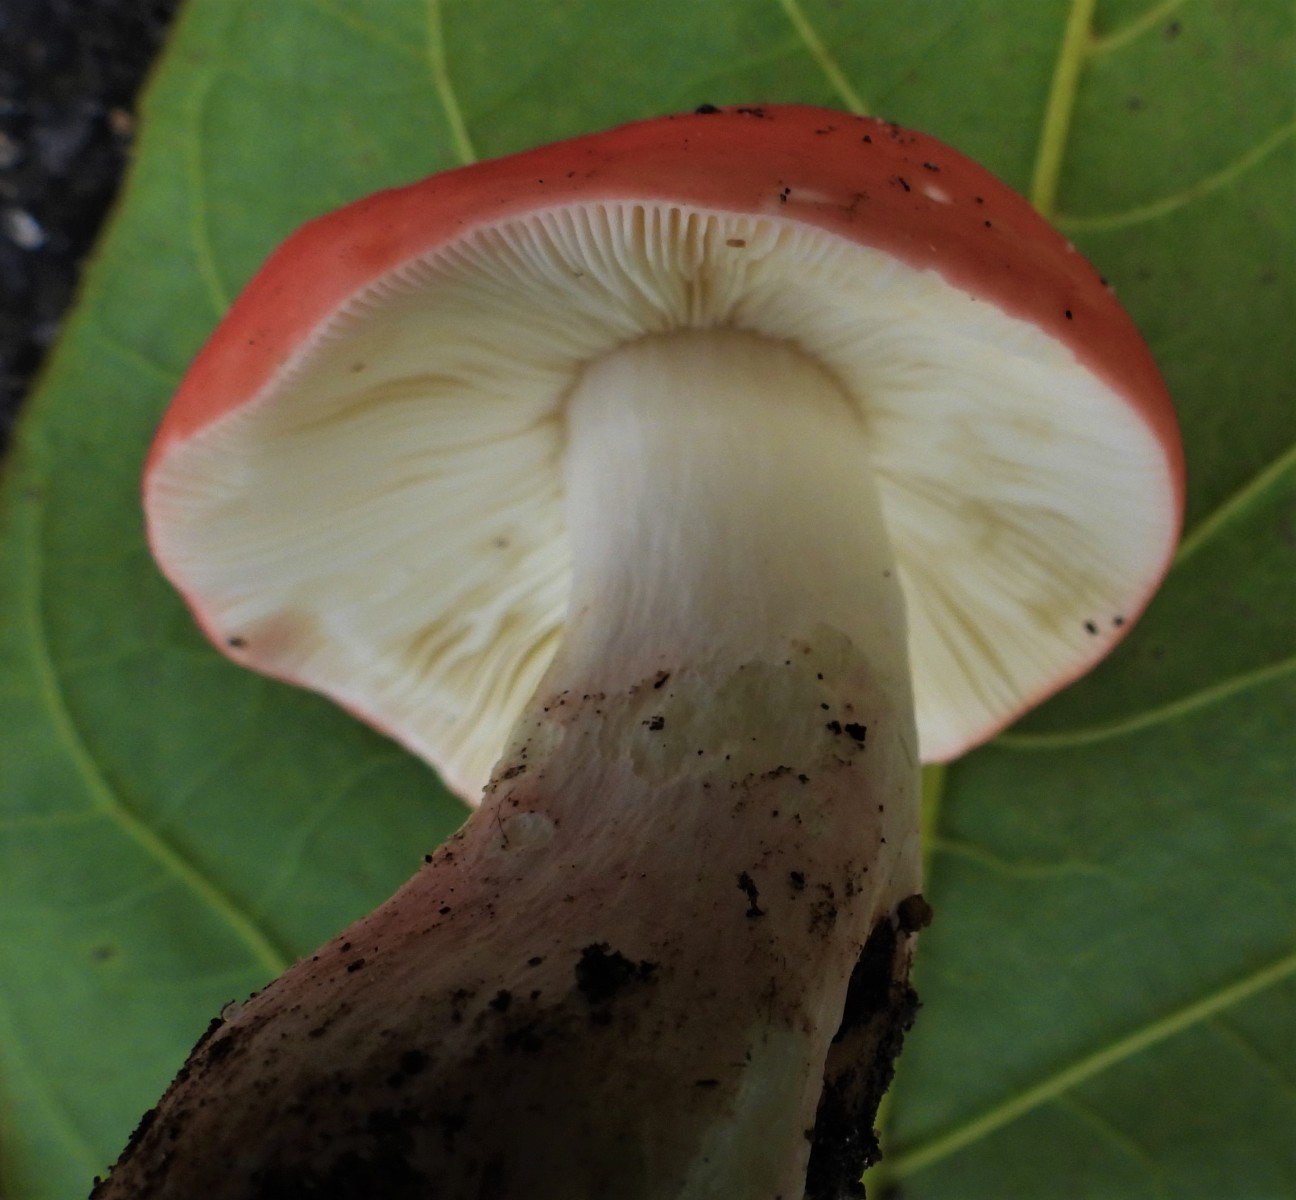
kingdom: Fungi
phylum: Basidiomycota
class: Agaricomycetes
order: Russulales
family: Russulaceae
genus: Russula
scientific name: Russula rosea
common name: fastkødet skørhat
